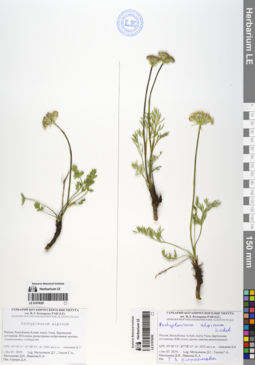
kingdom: Plantae
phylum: Tracheophyta
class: Magnoliopsida
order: Apiales
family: Apiaceae
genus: Pachypleurum
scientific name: Pachypleurum mutellinoides
